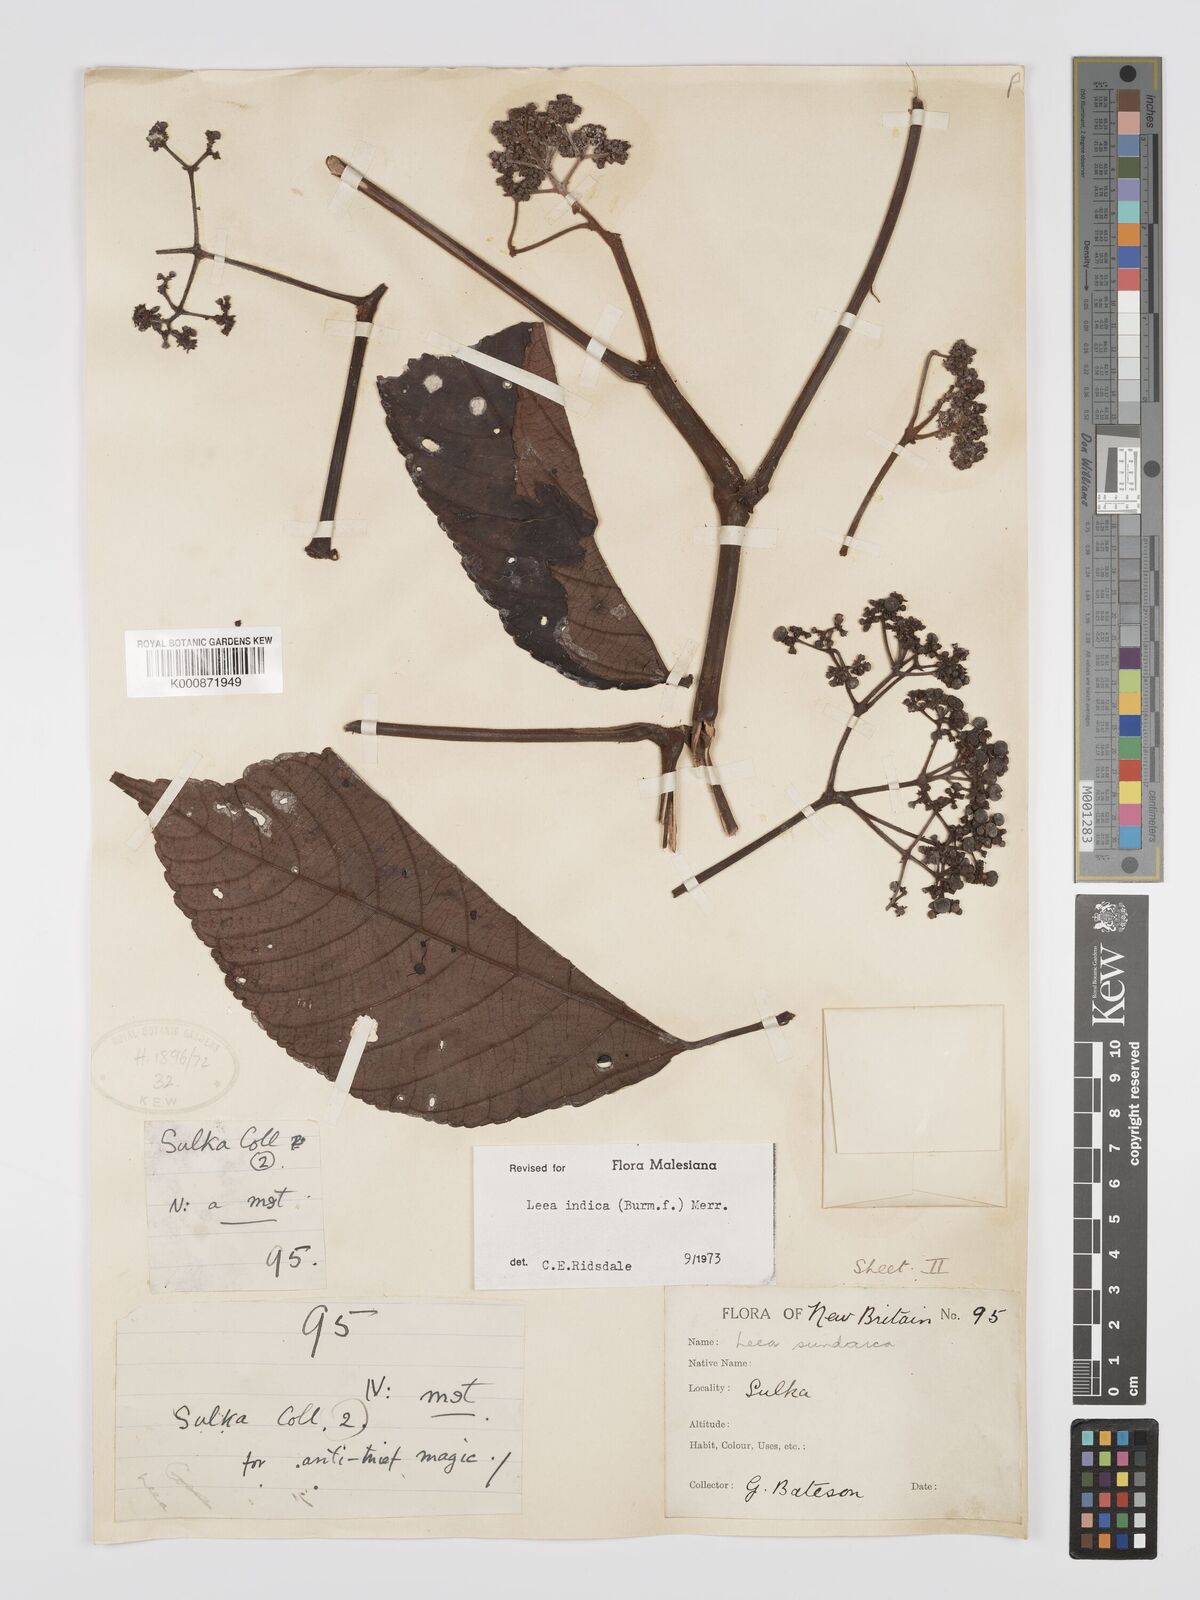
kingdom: Plantae
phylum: Tracheophyta
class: Magnoliopsida
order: Vitales
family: Vitaceae
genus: Leea
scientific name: Leea indica
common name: Bandicoot-berry
